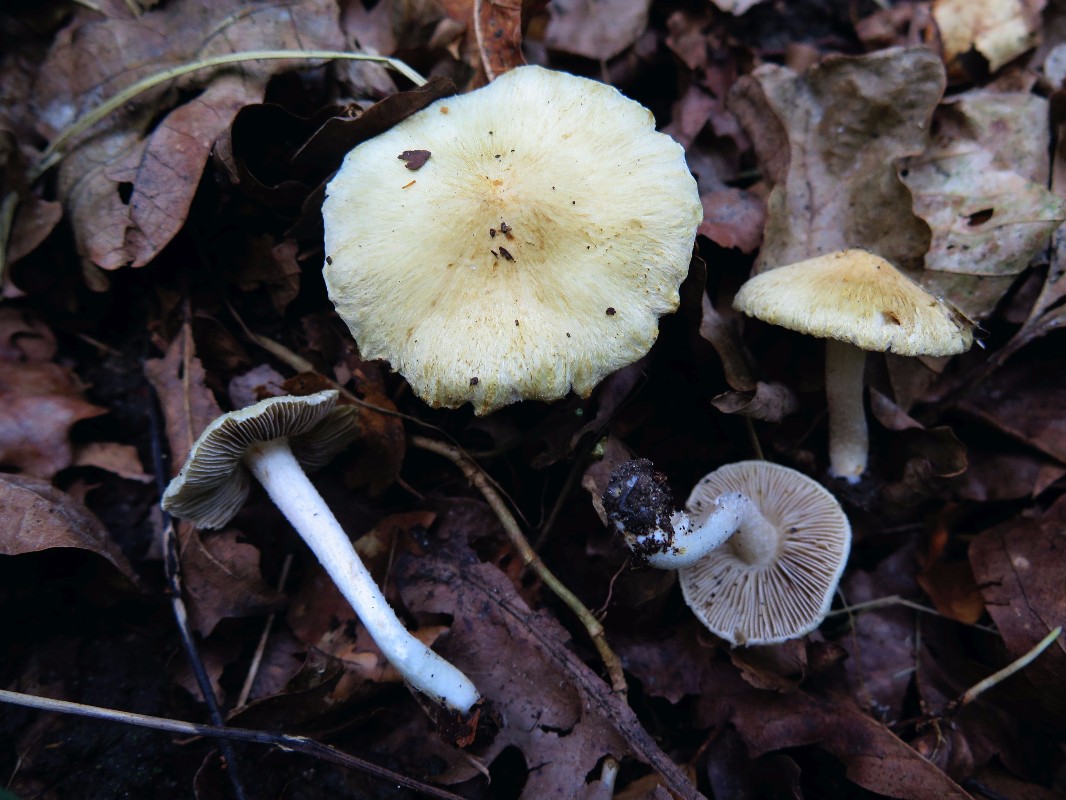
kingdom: Fungi
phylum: Basidiomycota
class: Agaricomycetes
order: Agaricales
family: Inocybaceae
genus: Pseudosperma
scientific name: Pseudosperma
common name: trævlhat
